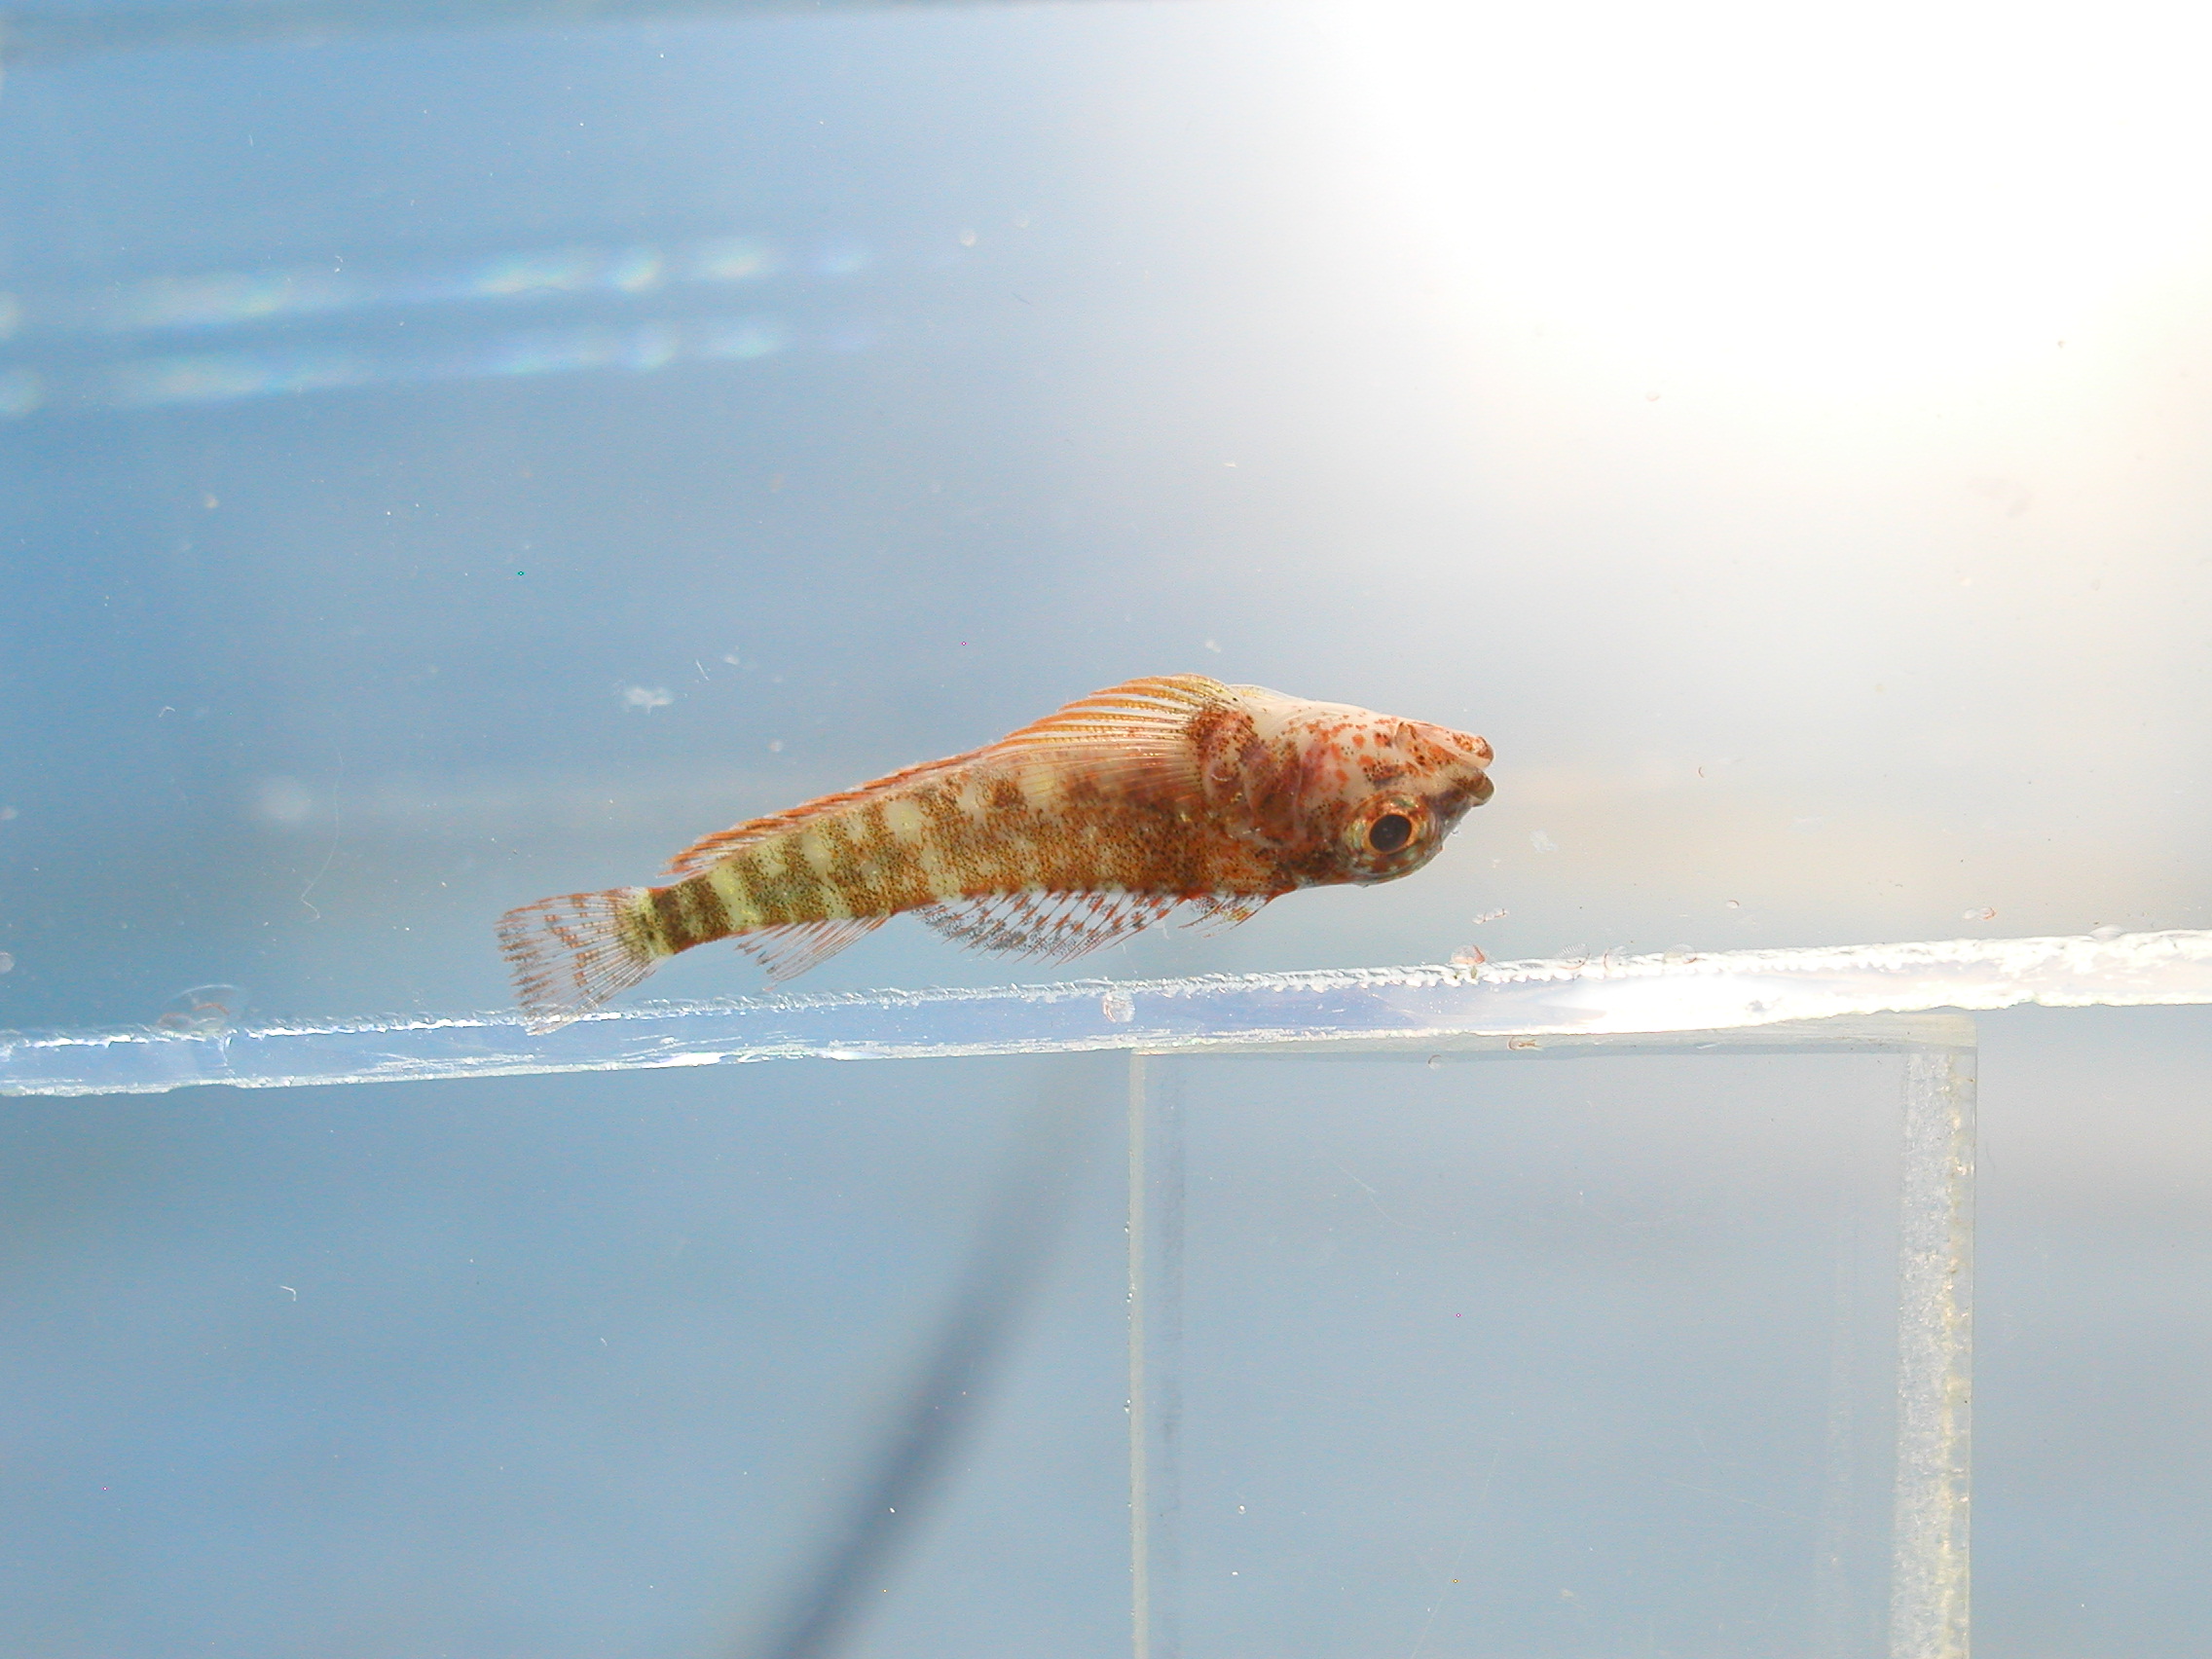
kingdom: Animalia
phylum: Chordata
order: Perciformes
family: Tripterygiidae
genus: Enneapterygius
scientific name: Enneapterygius tutuilae
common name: High-hat triplefin
